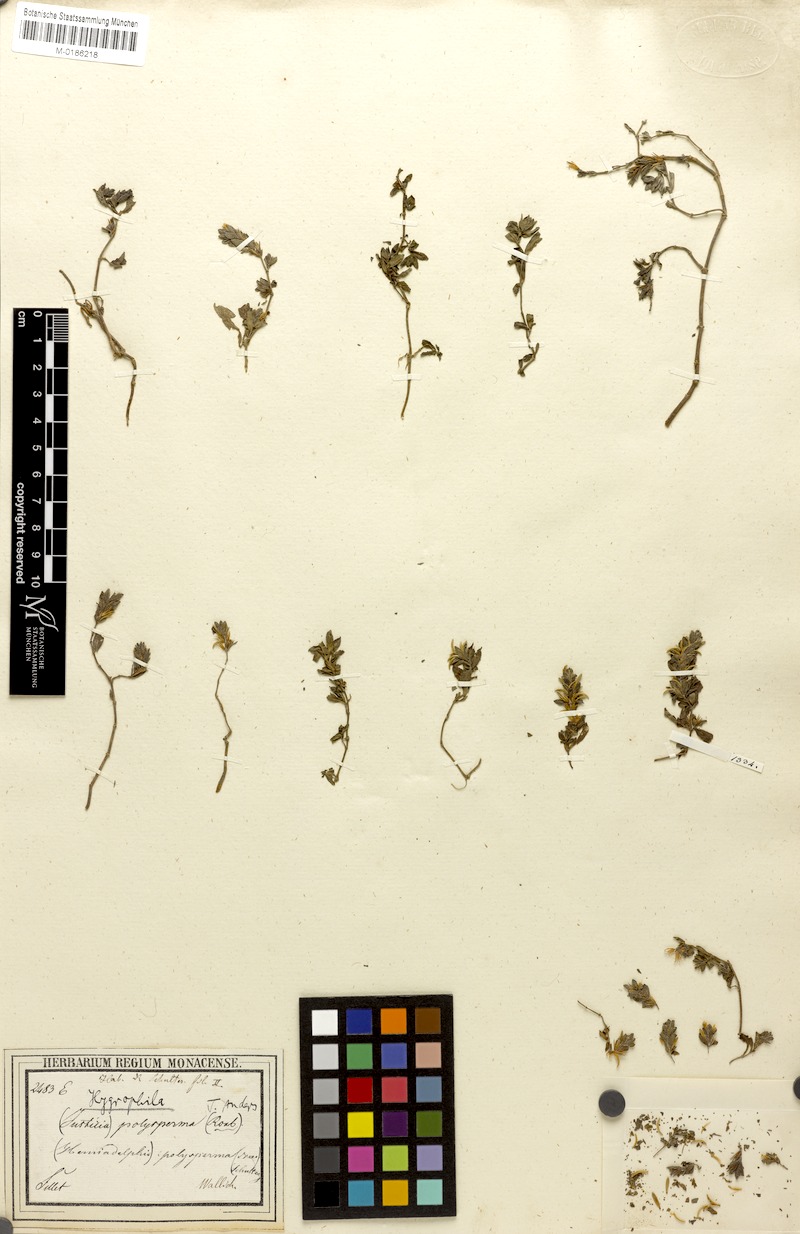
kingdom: Plantae
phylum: Tracheophyta
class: Magnoliopsida
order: Lamiales
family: Acanthaceae
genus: Hygrophila
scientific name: Hygrophila polysperma
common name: Indian swampweed
